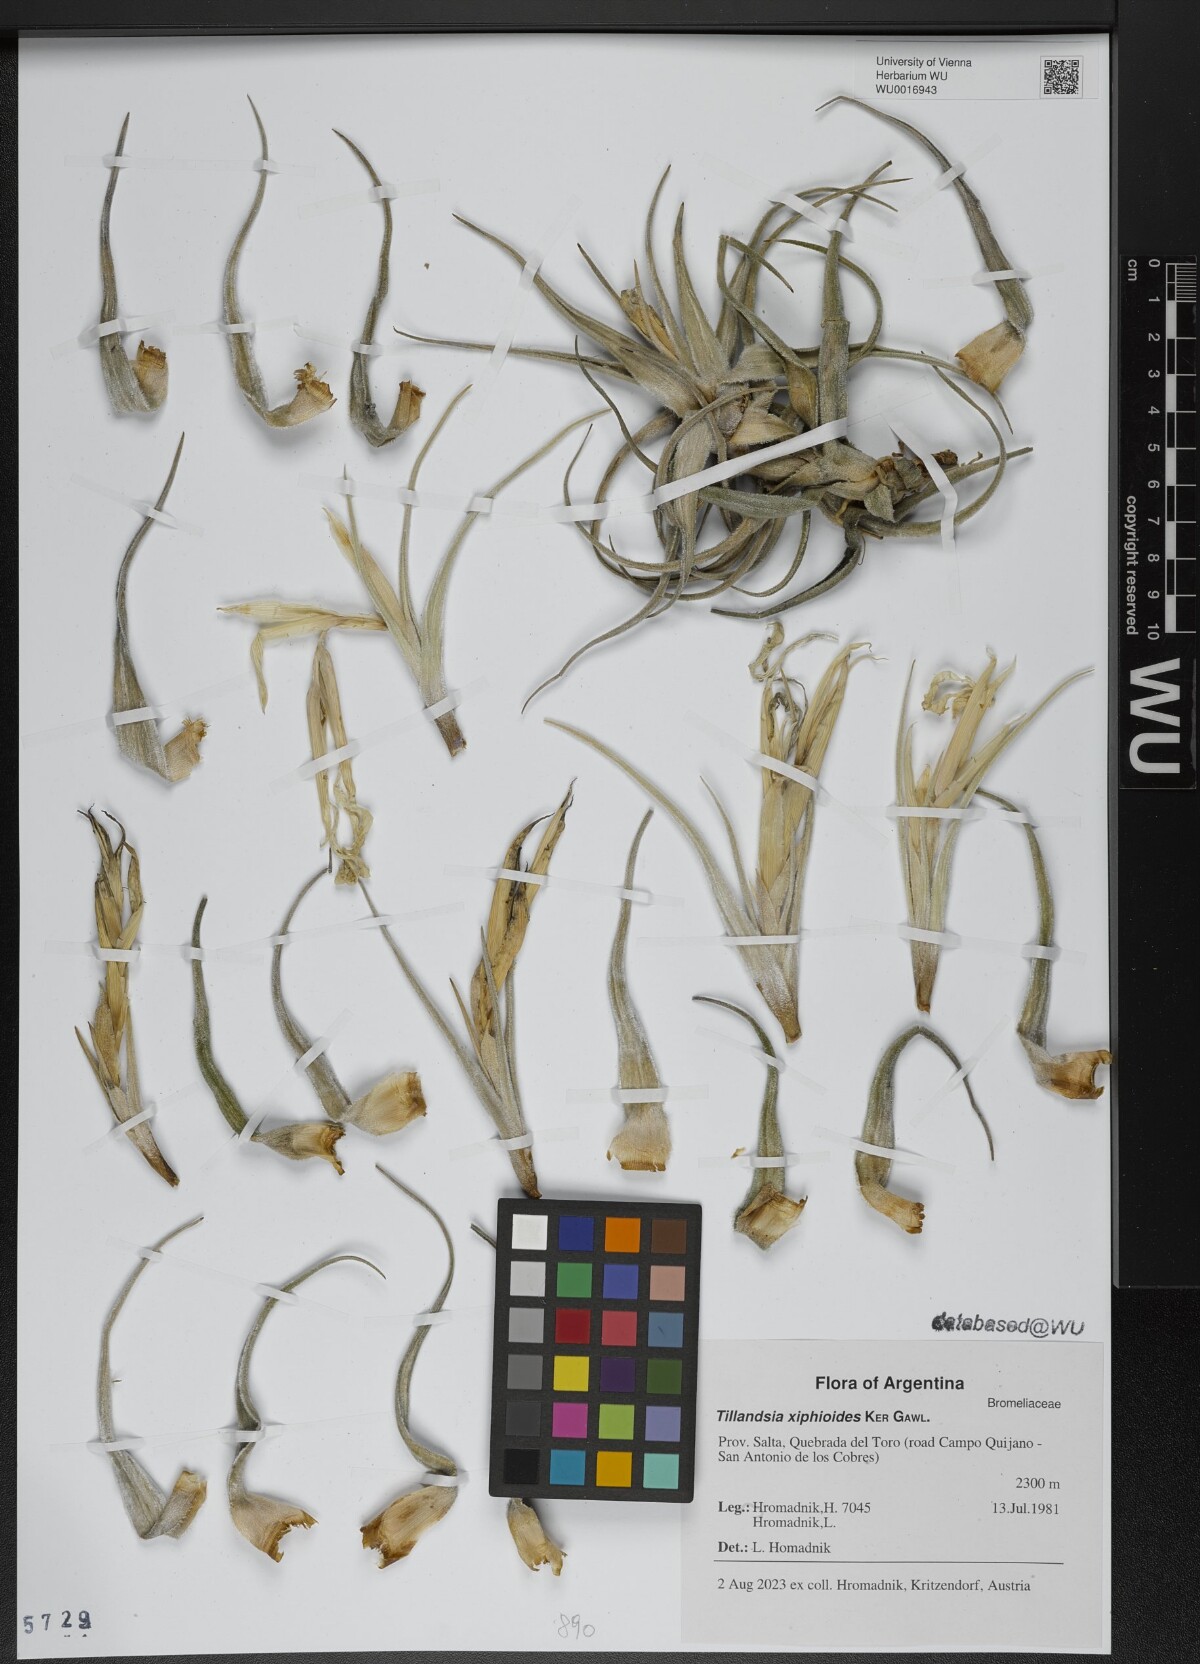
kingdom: Plantae
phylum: Tracheophyta
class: Liliopsida
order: Poales
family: Bromeliaceae
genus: Tillandsia
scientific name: Tillandsia xiphioides
